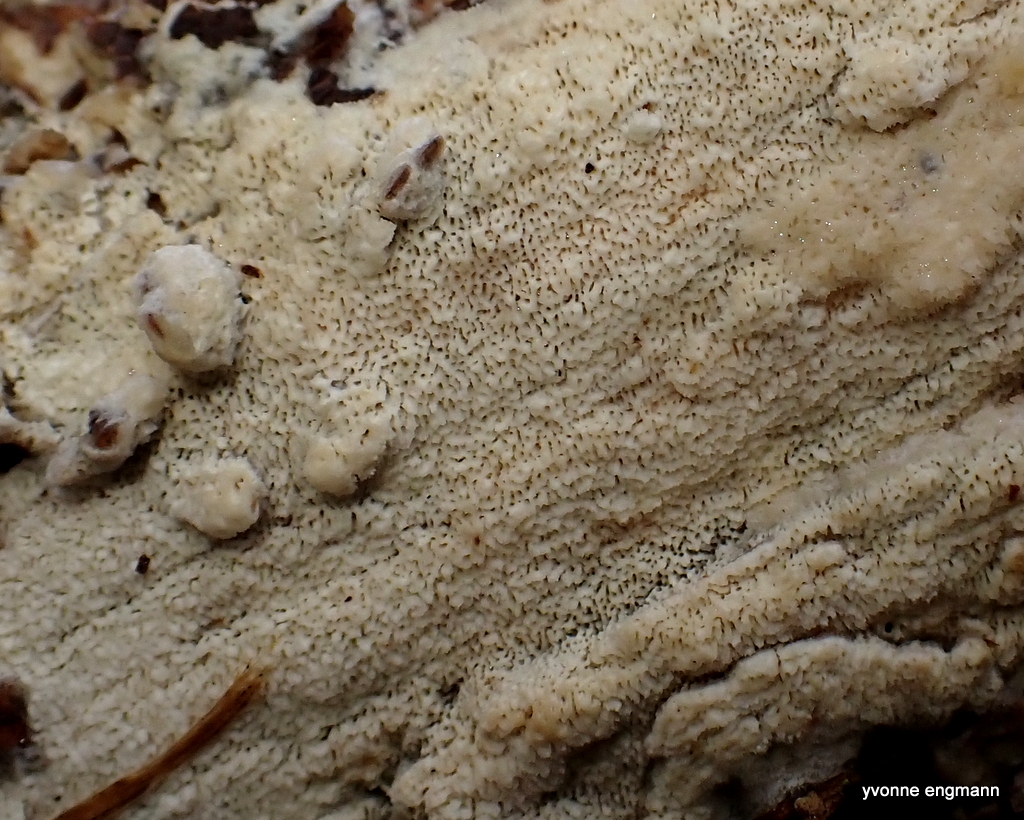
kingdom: Fungi
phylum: Basidiomycota
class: Agaricomycetes
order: Corticiales
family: Corticiaceae
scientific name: Corticiaceae
